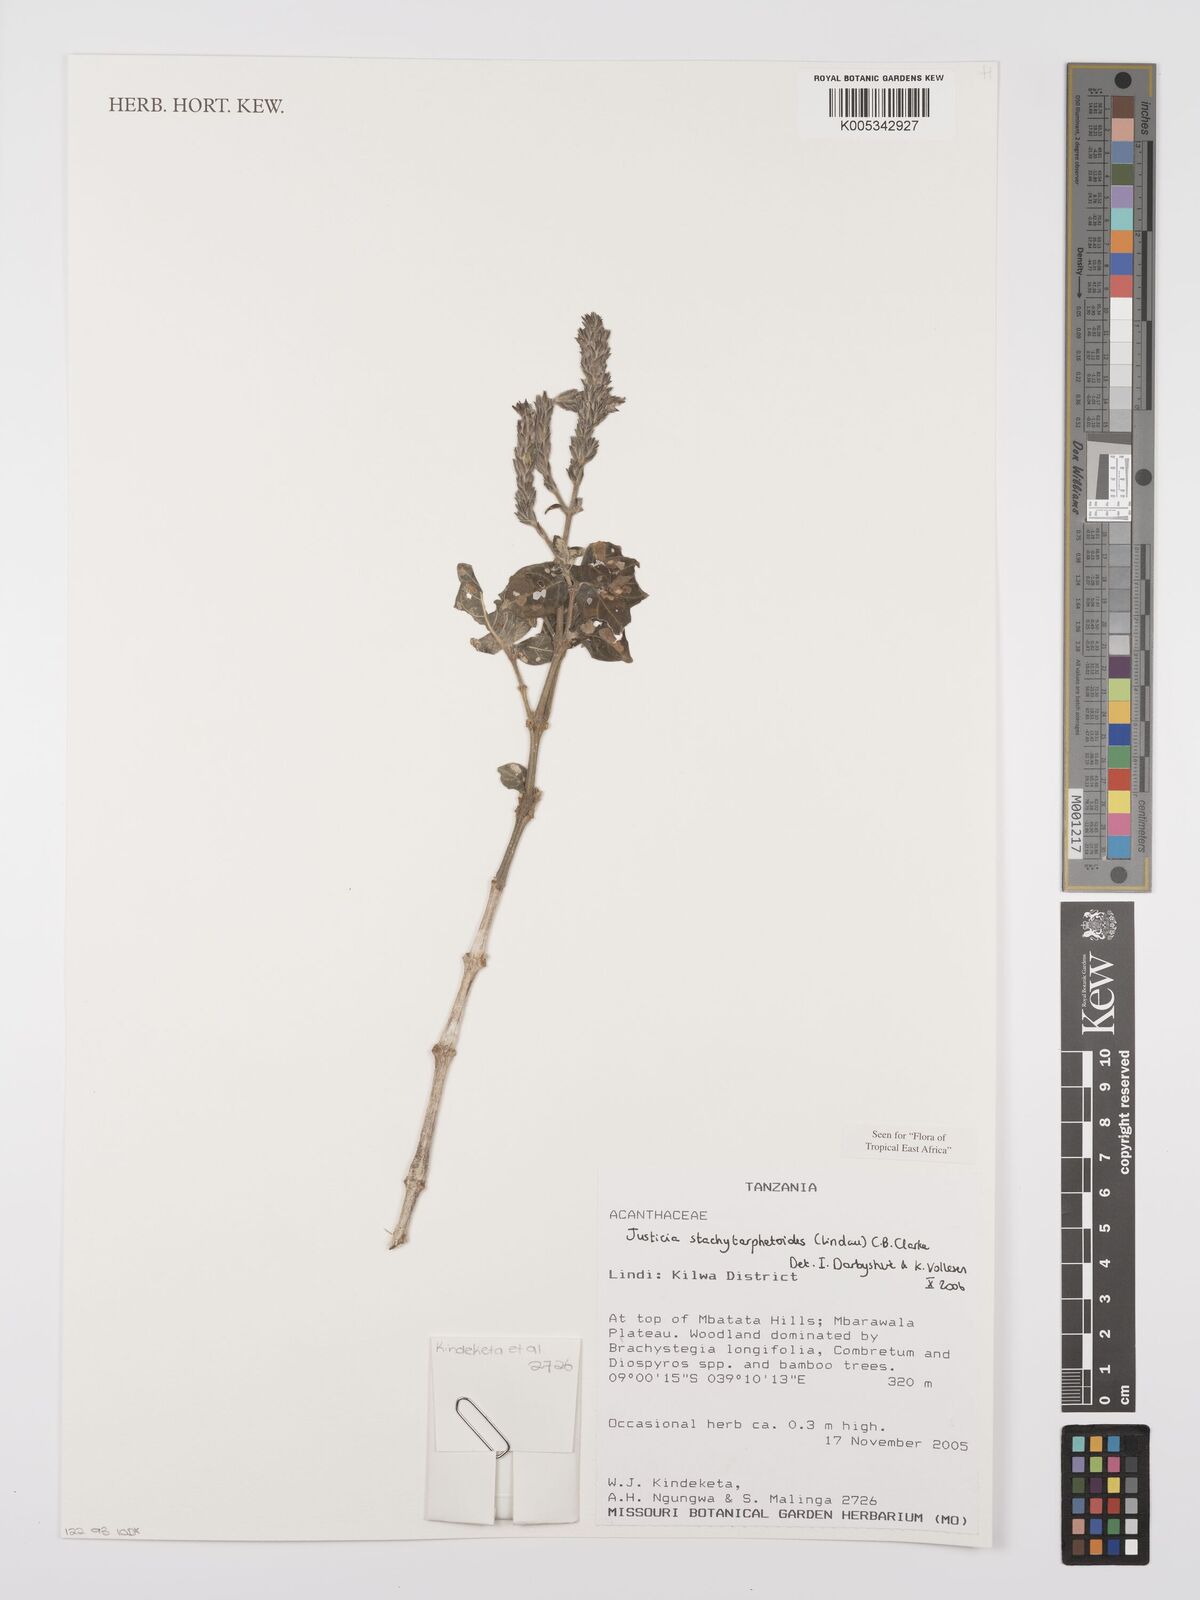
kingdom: Plantae
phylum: Tracheophyta
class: Magnoliopsida
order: Lamiales
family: Acanthaceae
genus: Justicia
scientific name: Justicia stachytarphetoides
